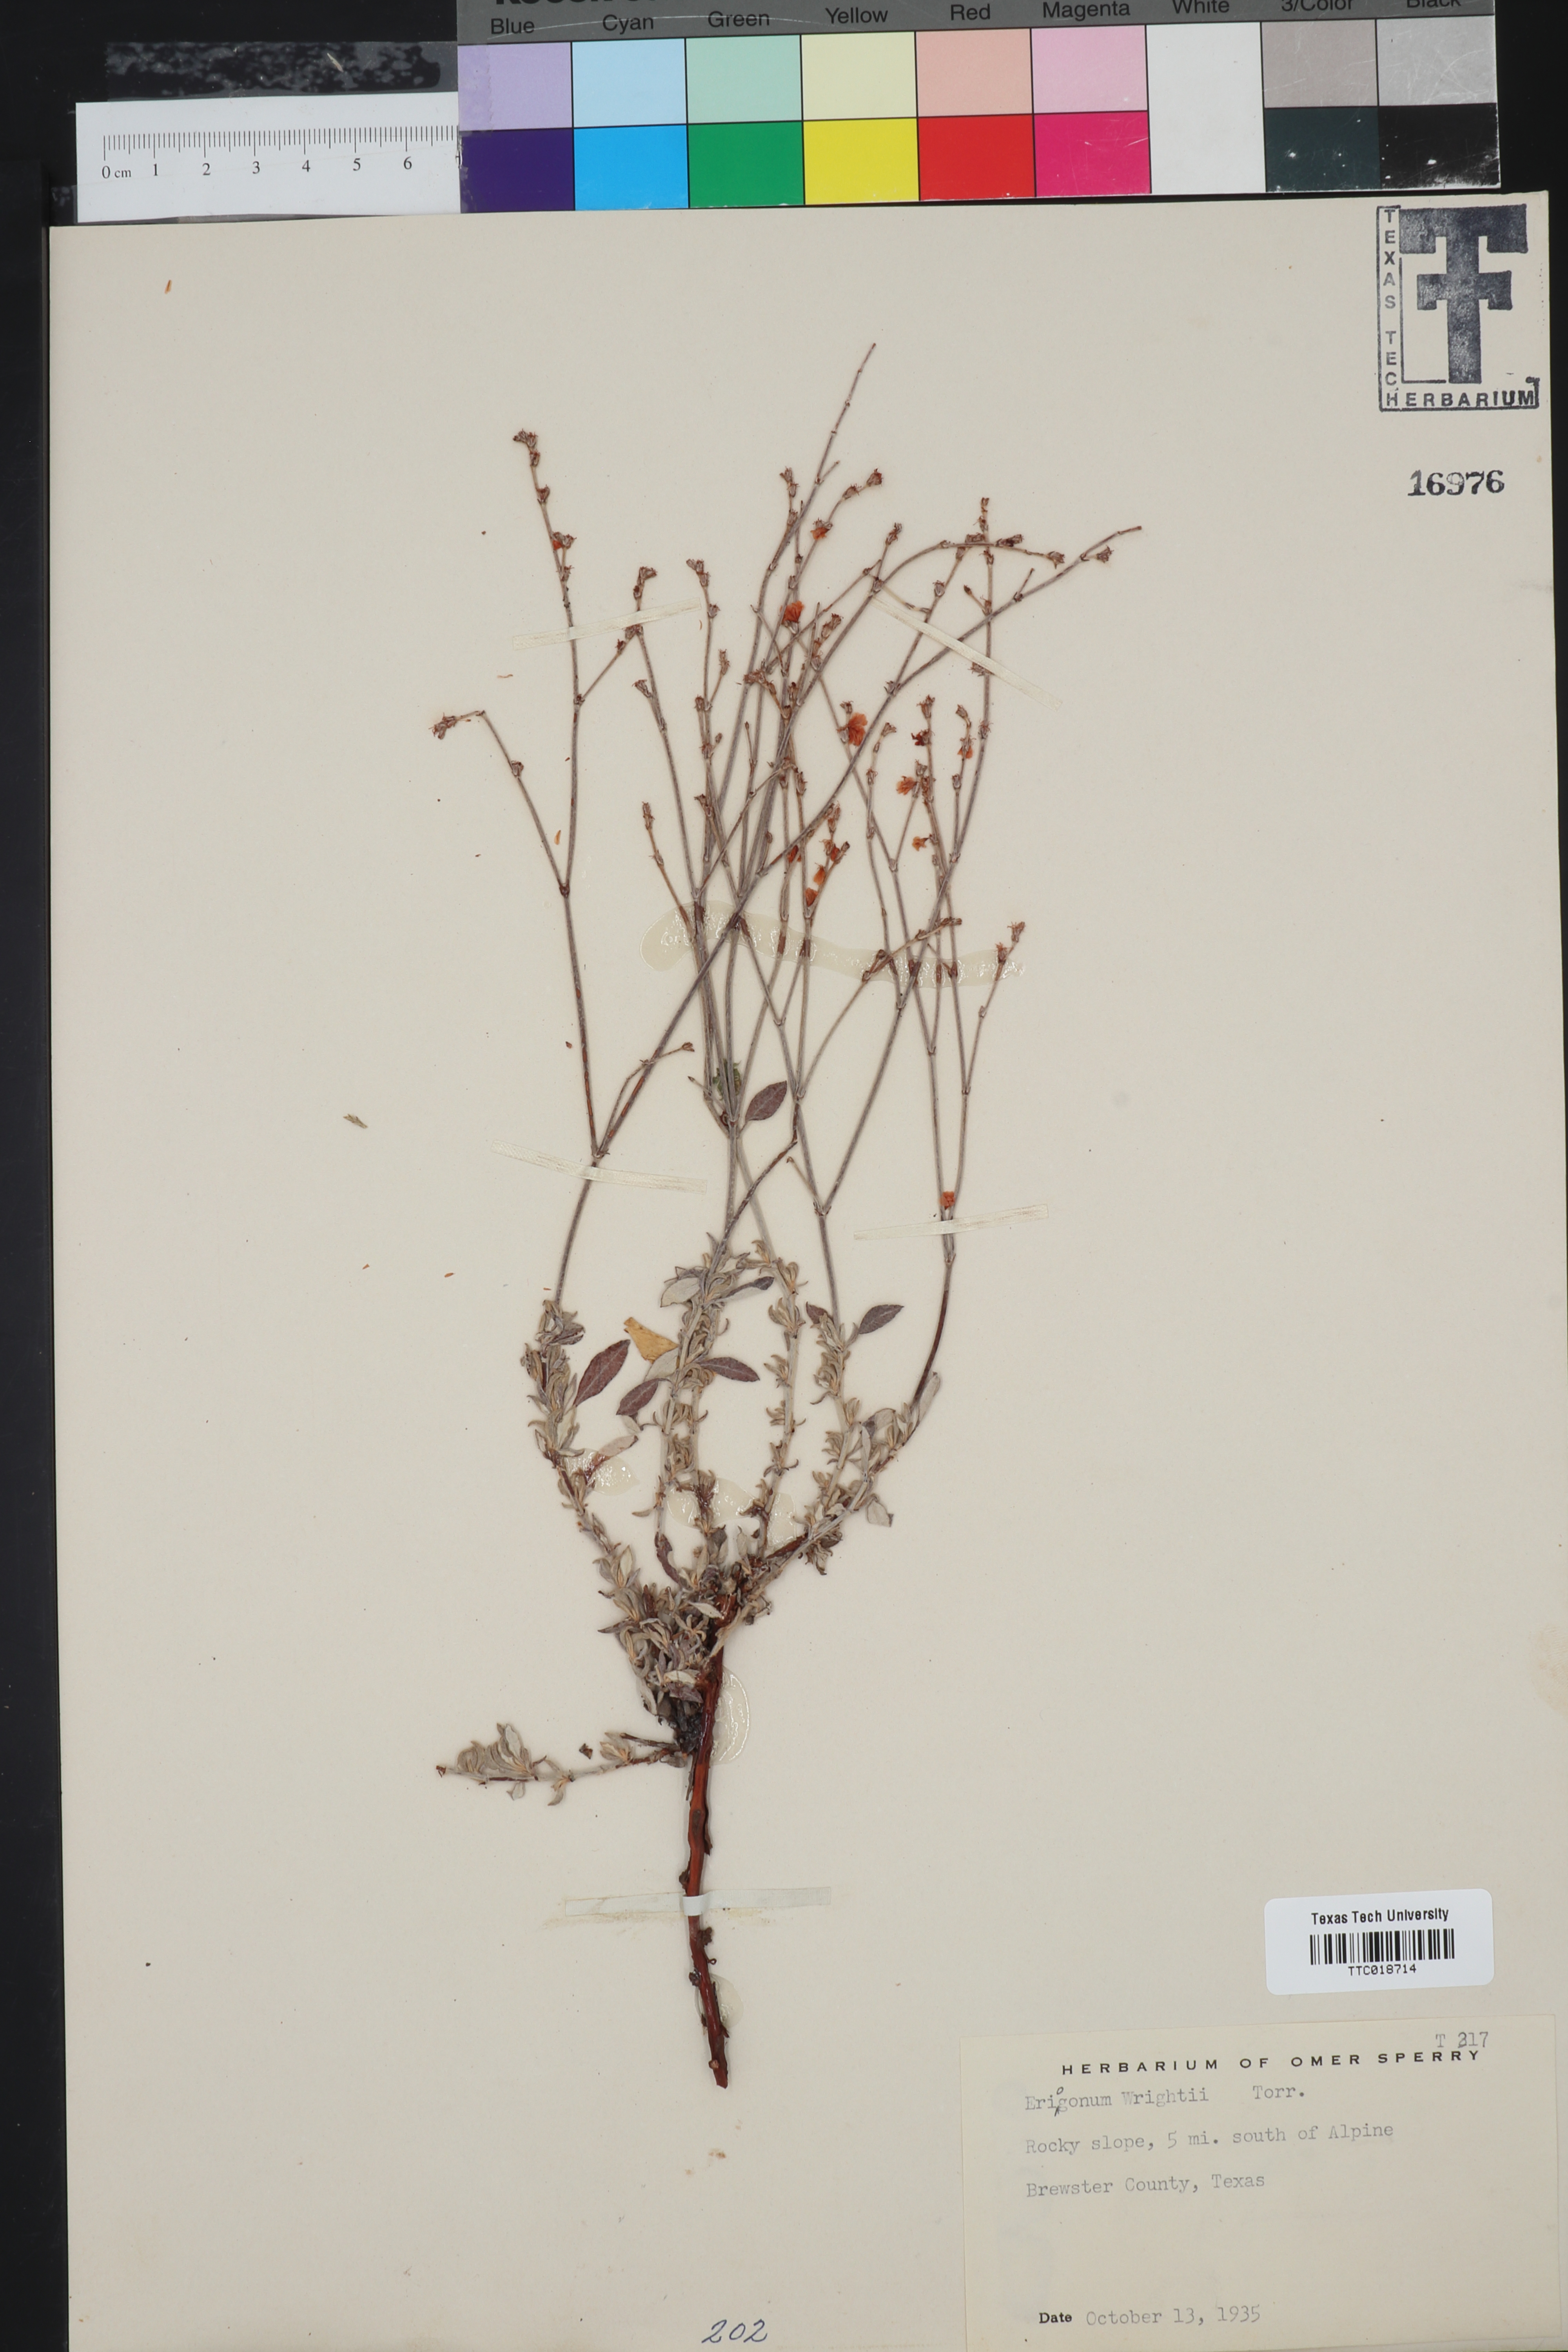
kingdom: Plantae
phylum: Tracheophyta
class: Magnoliopsida
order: Caryophyllales
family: Polygonaceae
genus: Eriogonum
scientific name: Eriogonum wrightii
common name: Bastard-sage
